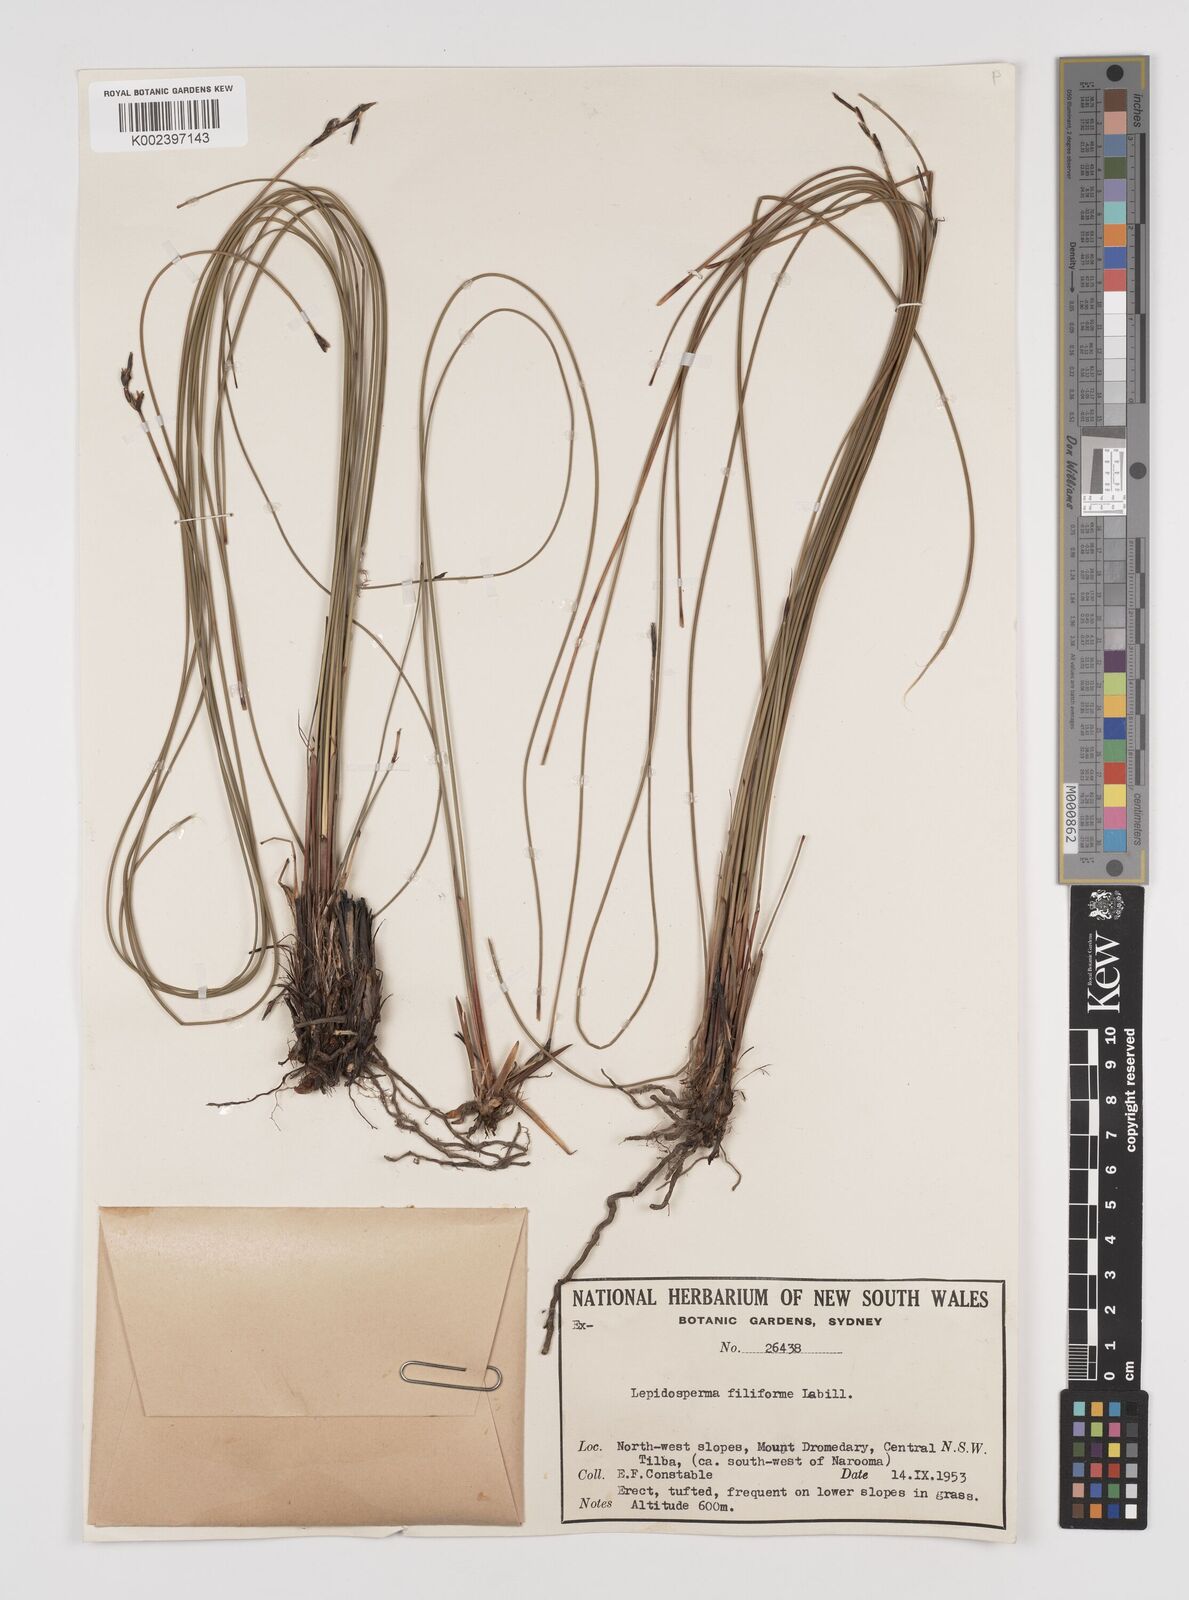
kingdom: Plantae
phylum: Tracheophyta
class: Liliopsida
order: Poales
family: Cyperaceae
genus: Lepidosperma
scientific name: Lepidosperma filiforme
